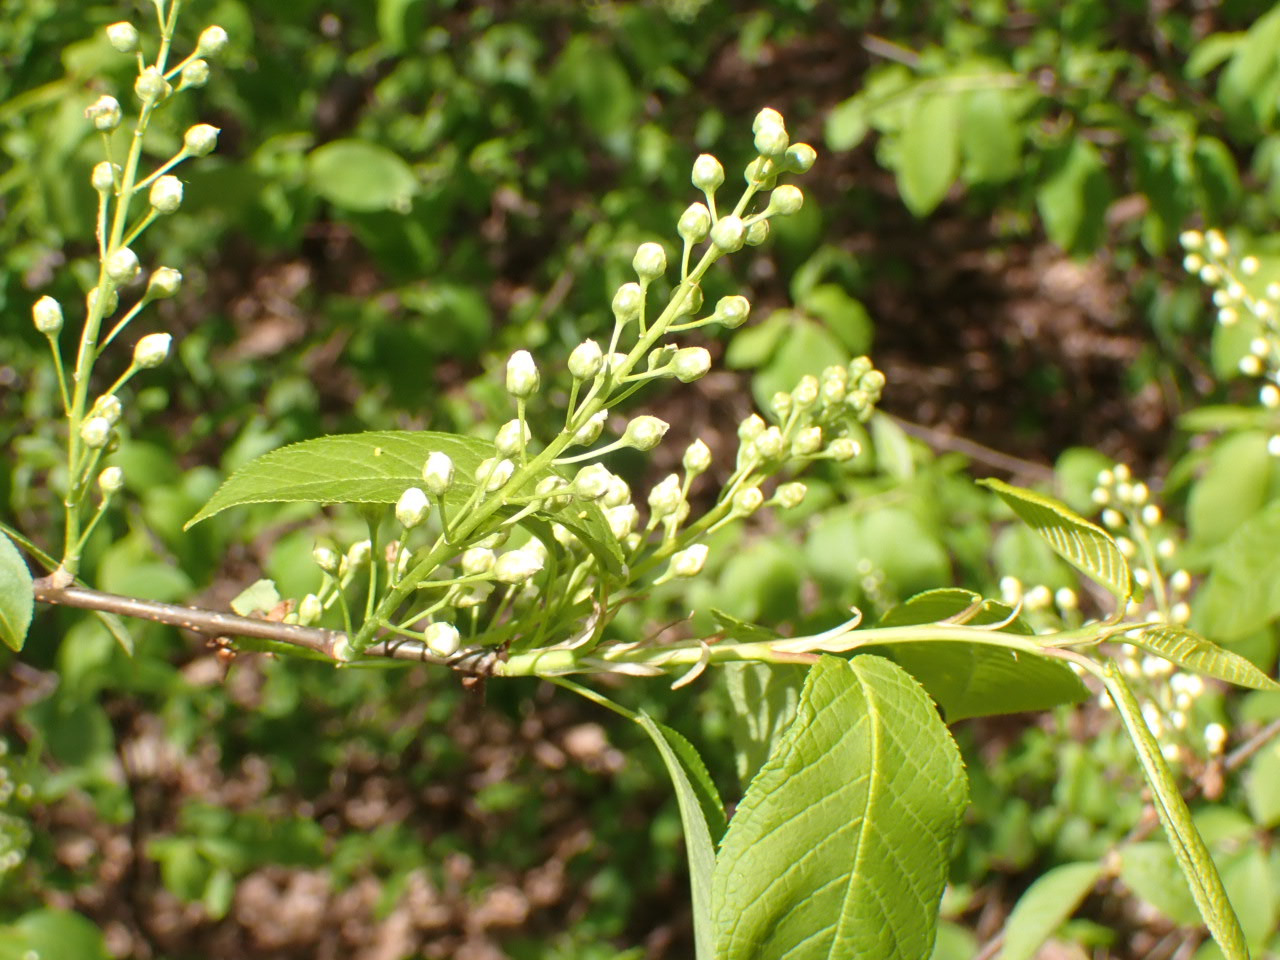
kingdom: Plantae
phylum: Tracheophyta
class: Magnoliopsida
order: Rosales
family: Rosaceae
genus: Prunus
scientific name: Prunus padus
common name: Almindelig hæg
